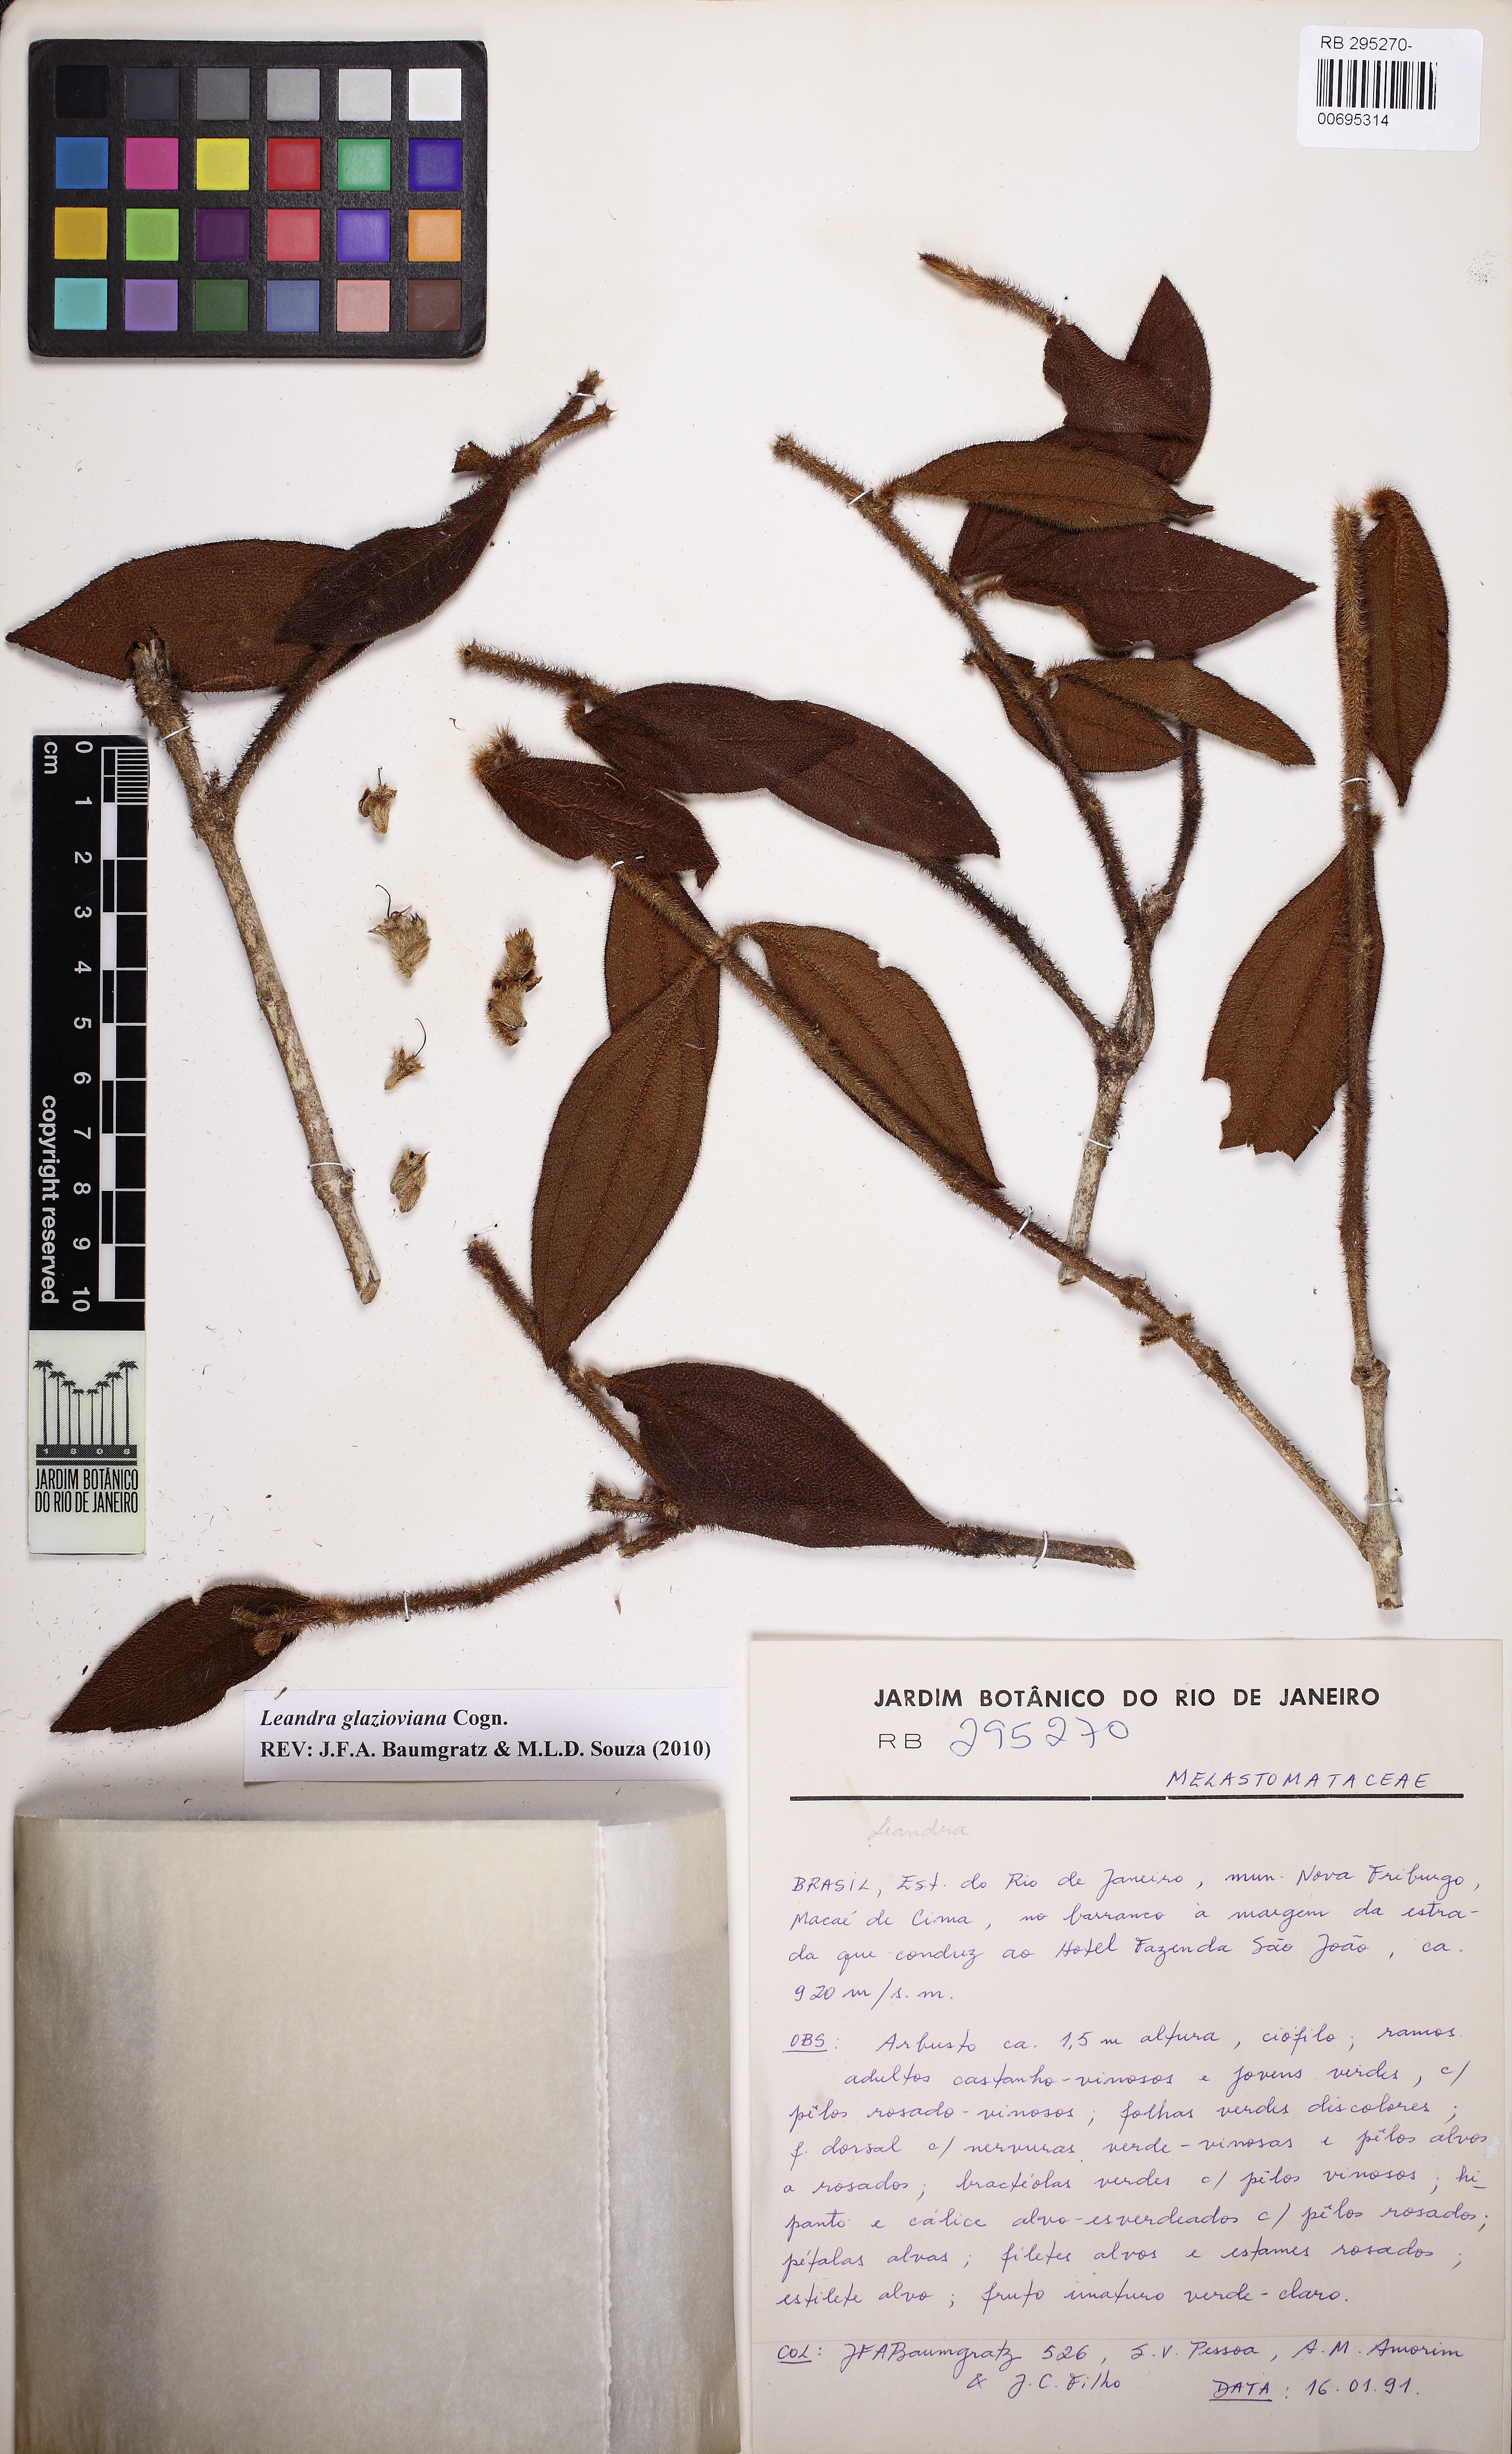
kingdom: Plantae
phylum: Tracheophyta
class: Magnoliopsida
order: Myrtales
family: Melastomataceae
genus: Miconia
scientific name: Miconia pubistyla
